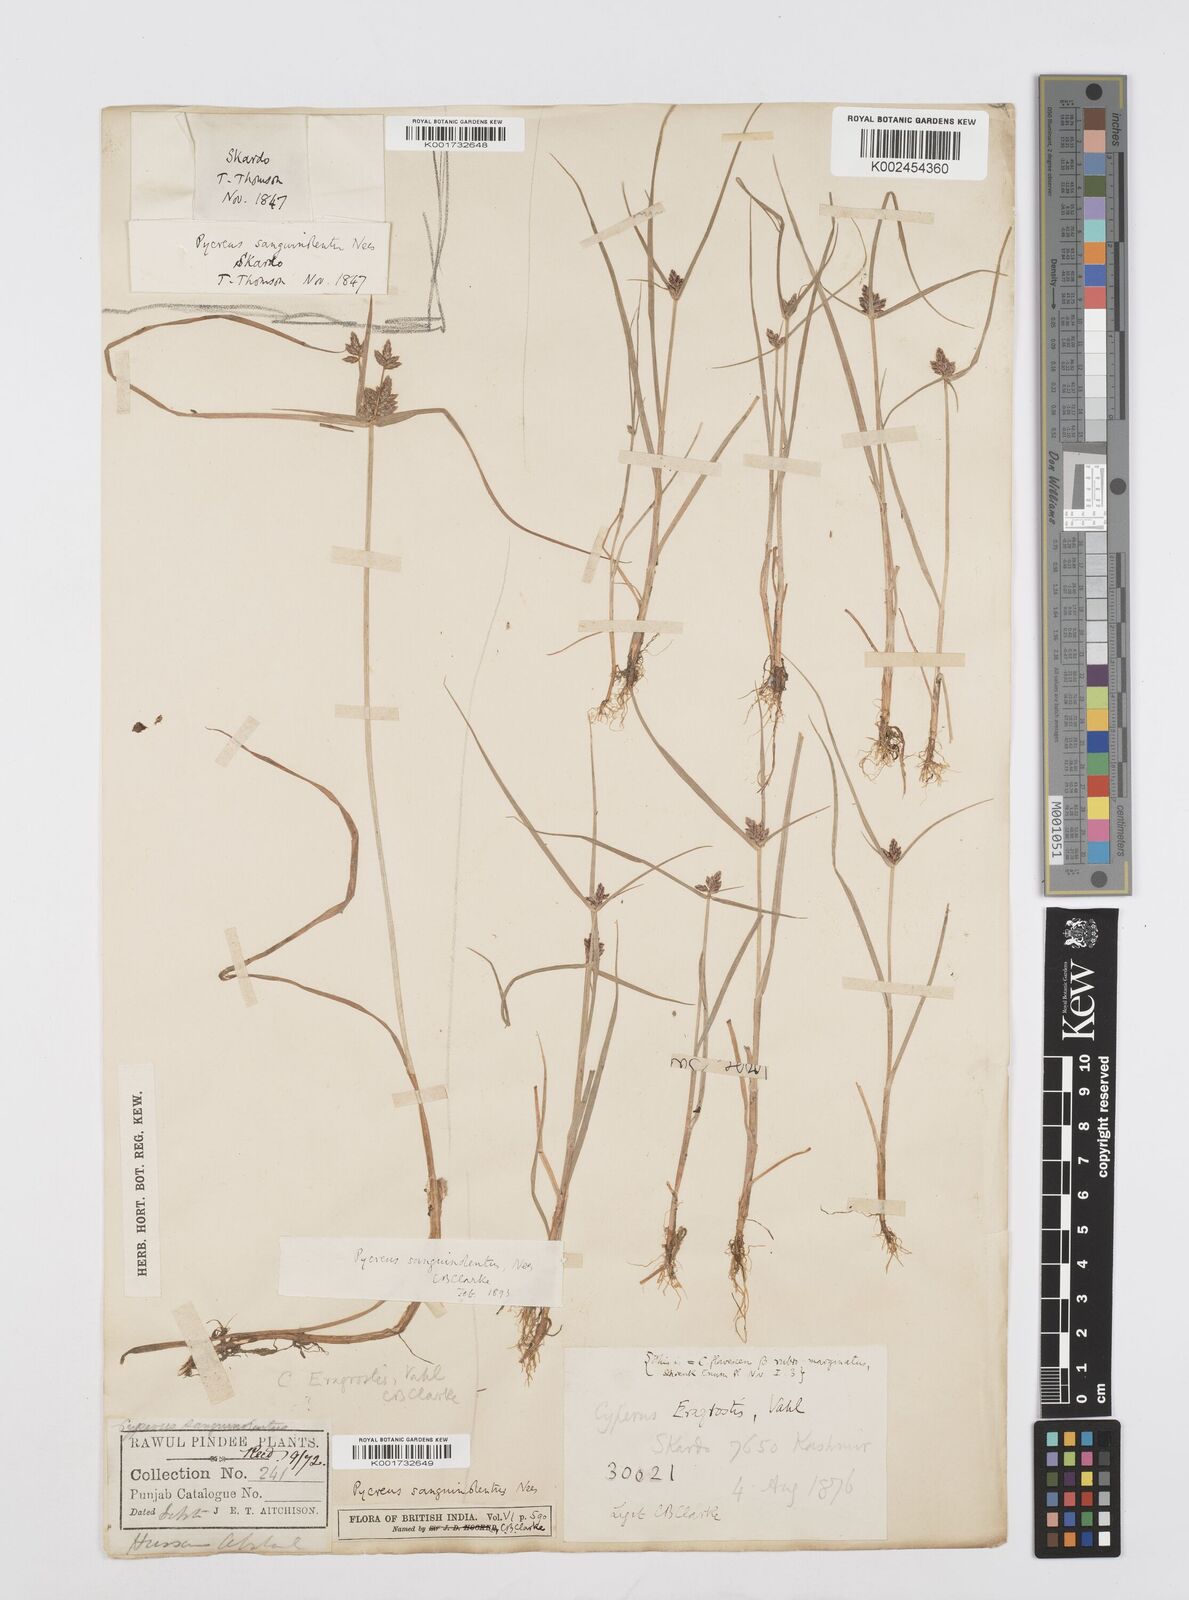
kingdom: Plantae
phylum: Tracheophyta
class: Liliopsida
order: Poales
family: Cyperaceae
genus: Cyperus
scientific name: Cyperus sanguinolentus
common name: Purpleglume flatsedge
